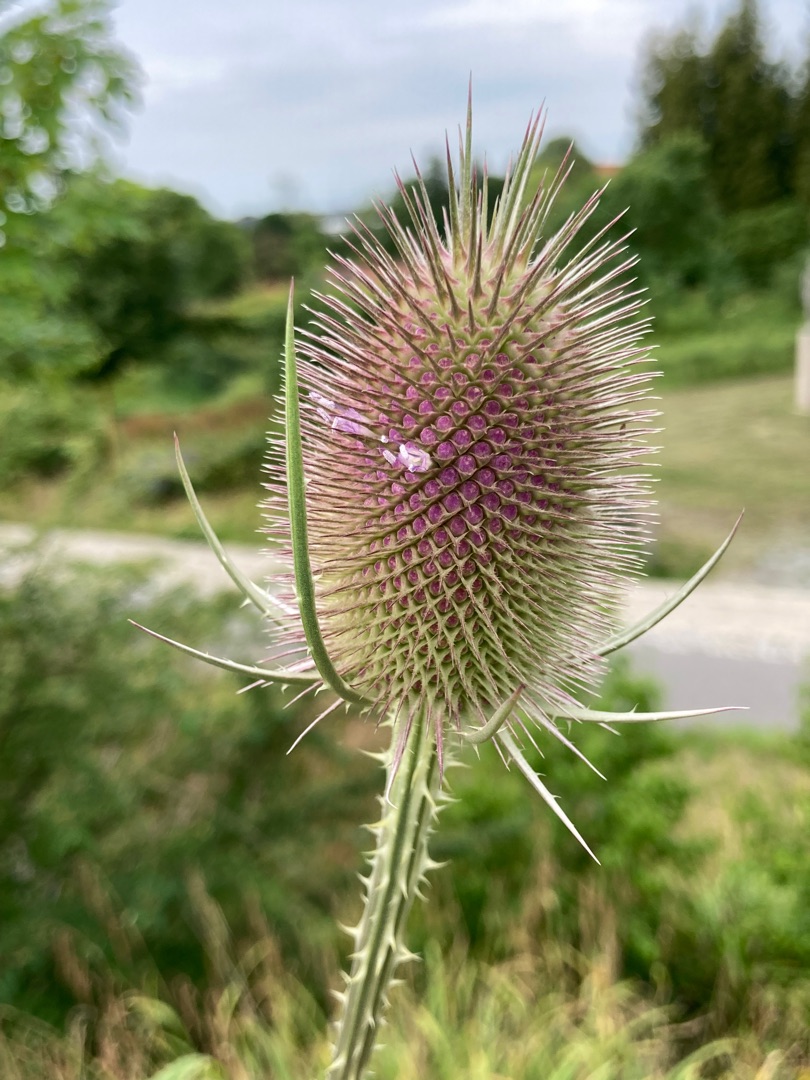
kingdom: Plantae
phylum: Tracheophyta
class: Magnoliopsida
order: Dipsacales
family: Caprifoliaceae
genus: Dipsacus
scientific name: Dipsacus fullonum
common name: Gærde-kartebolle
